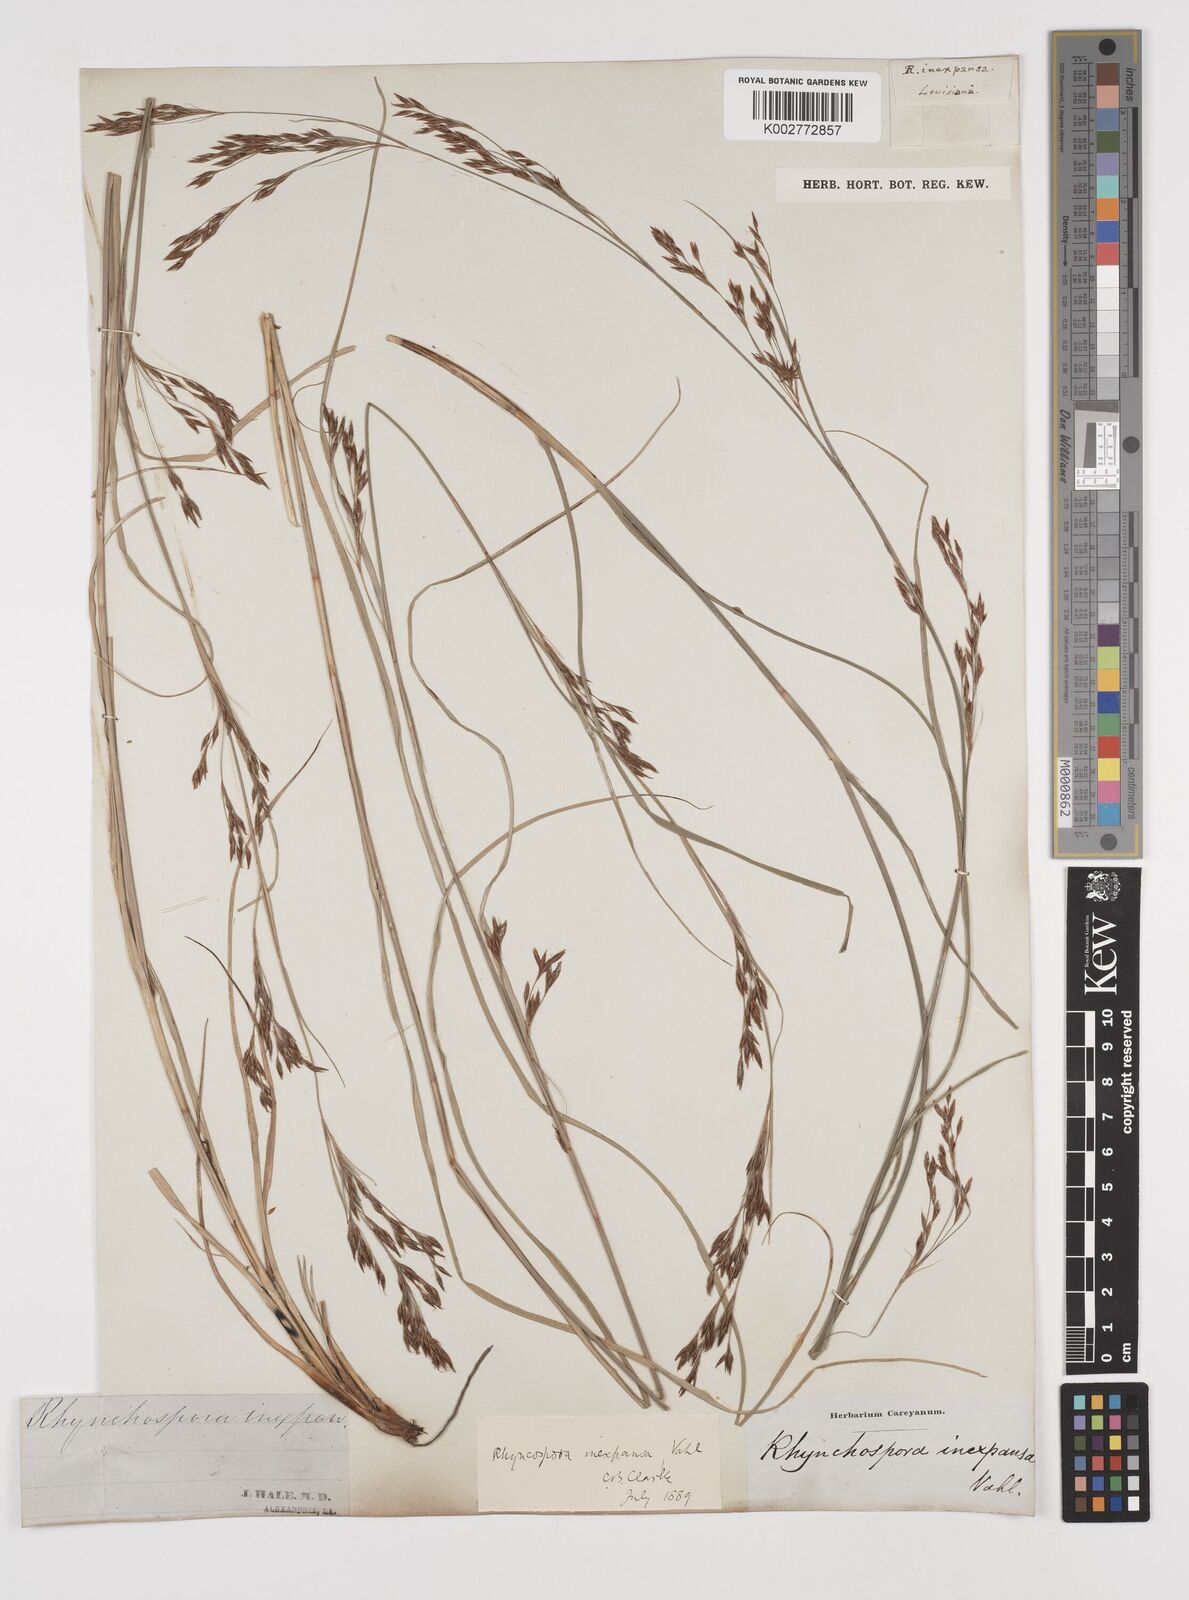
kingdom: Plantae
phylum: Tracheophyta
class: Liliopsida
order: Poales
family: Cyperaceae
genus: Rhynchospora
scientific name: Rhynchospora inexpansa
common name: Nodding beaksedge
